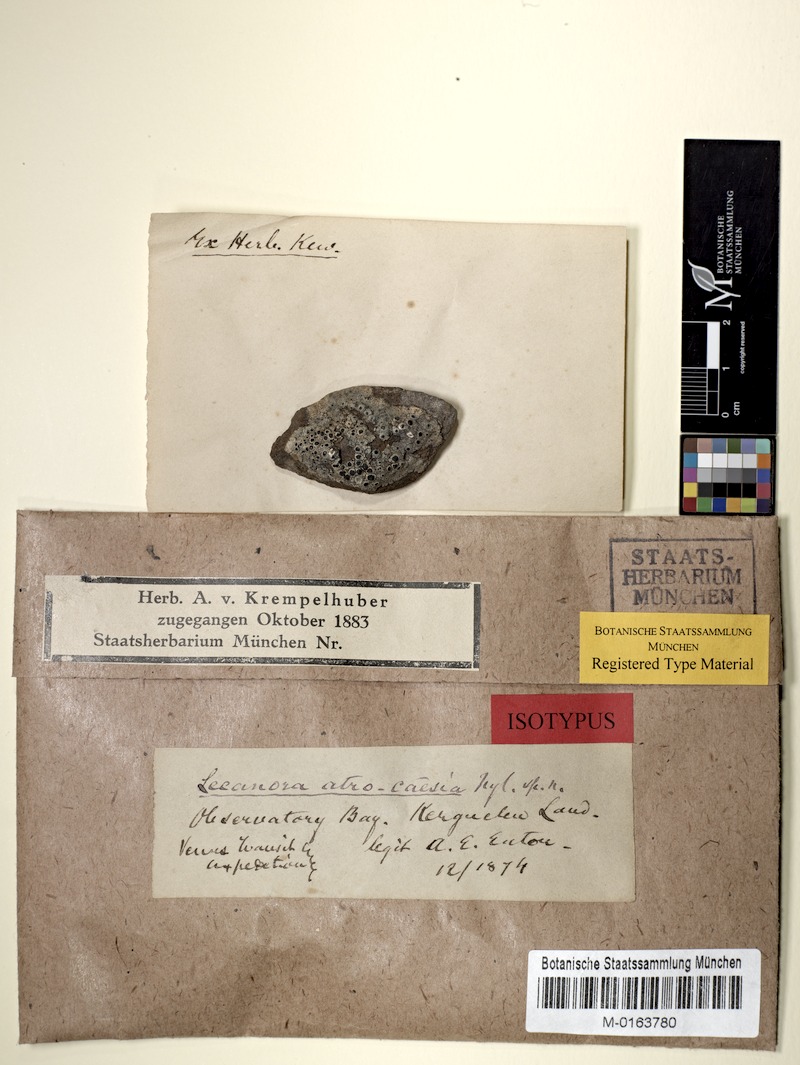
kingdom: Fungi
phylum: Ascomycota
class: Lecanoromycetes
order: Lecanorales
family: Tephromelataceae
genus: Tephromela
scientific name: Tephromela atrocaesia
